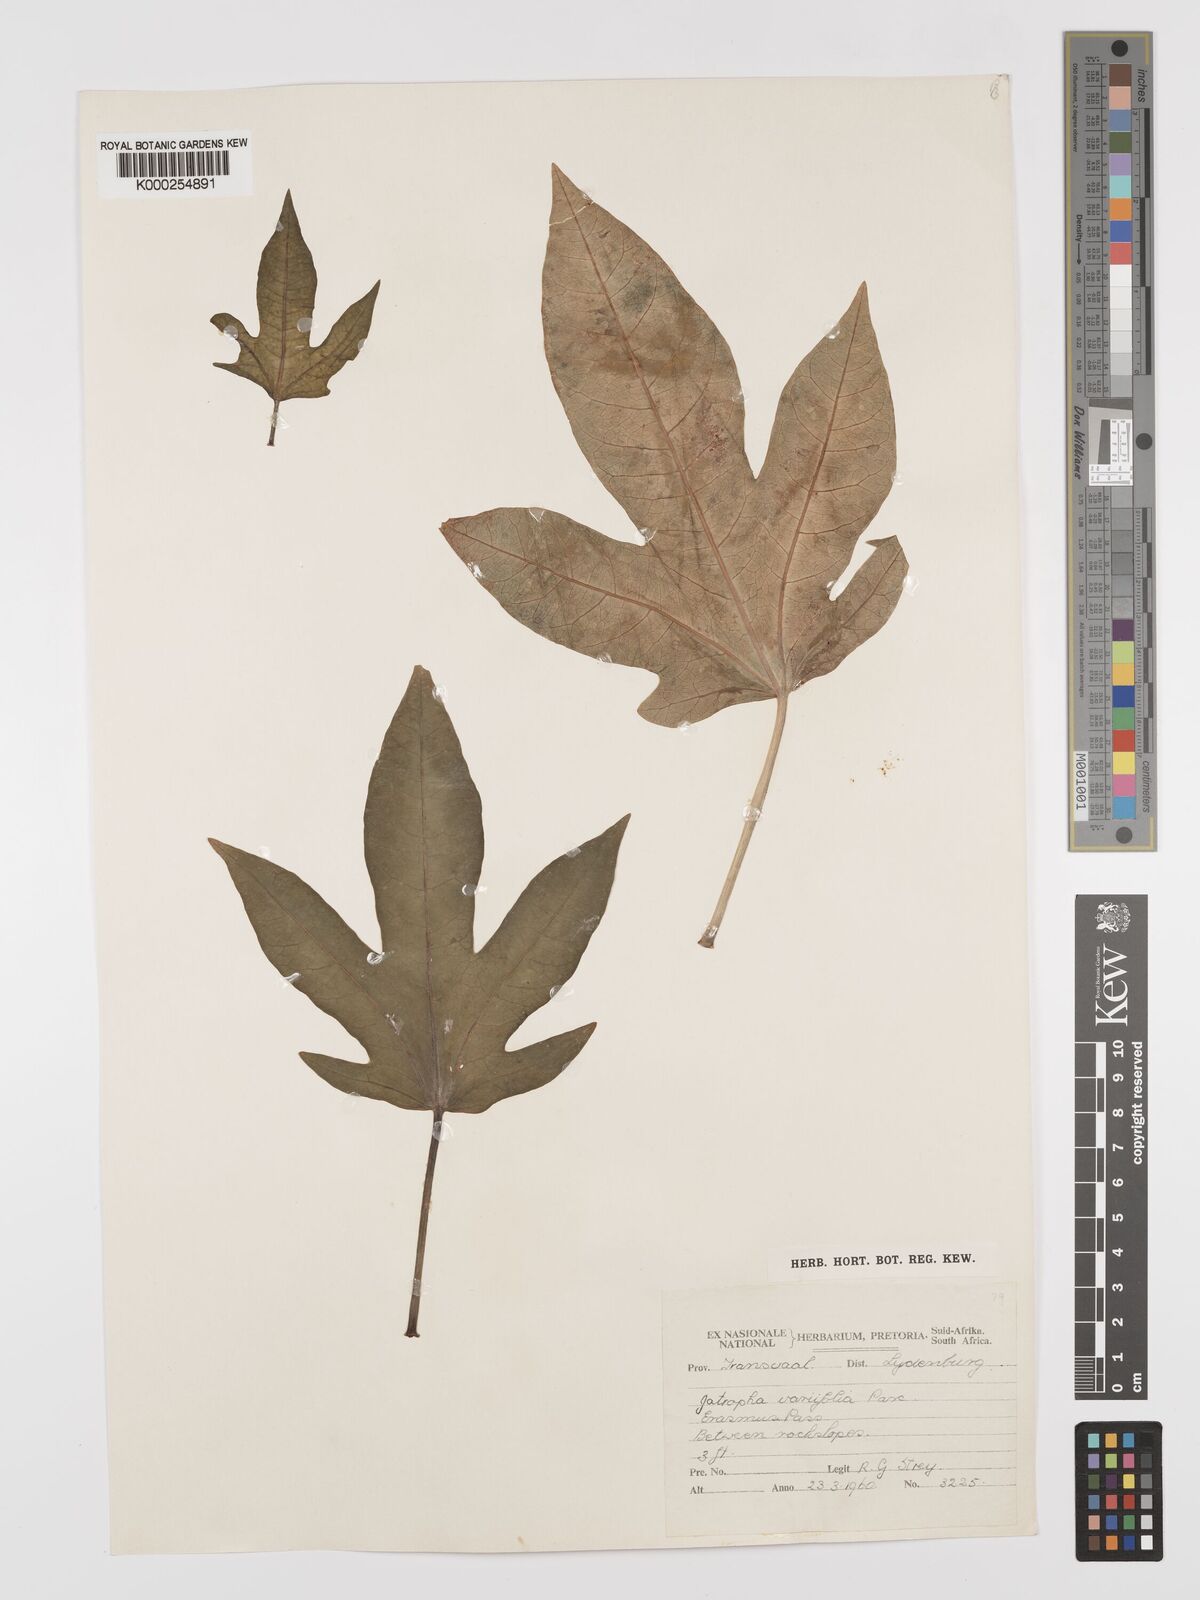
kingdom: Plantae
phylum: Tracheophyta
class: Magnoliopsida
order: Malpighiales
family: Euphorbiaceae
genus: Jatropha
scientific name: Jatropha variifolia
